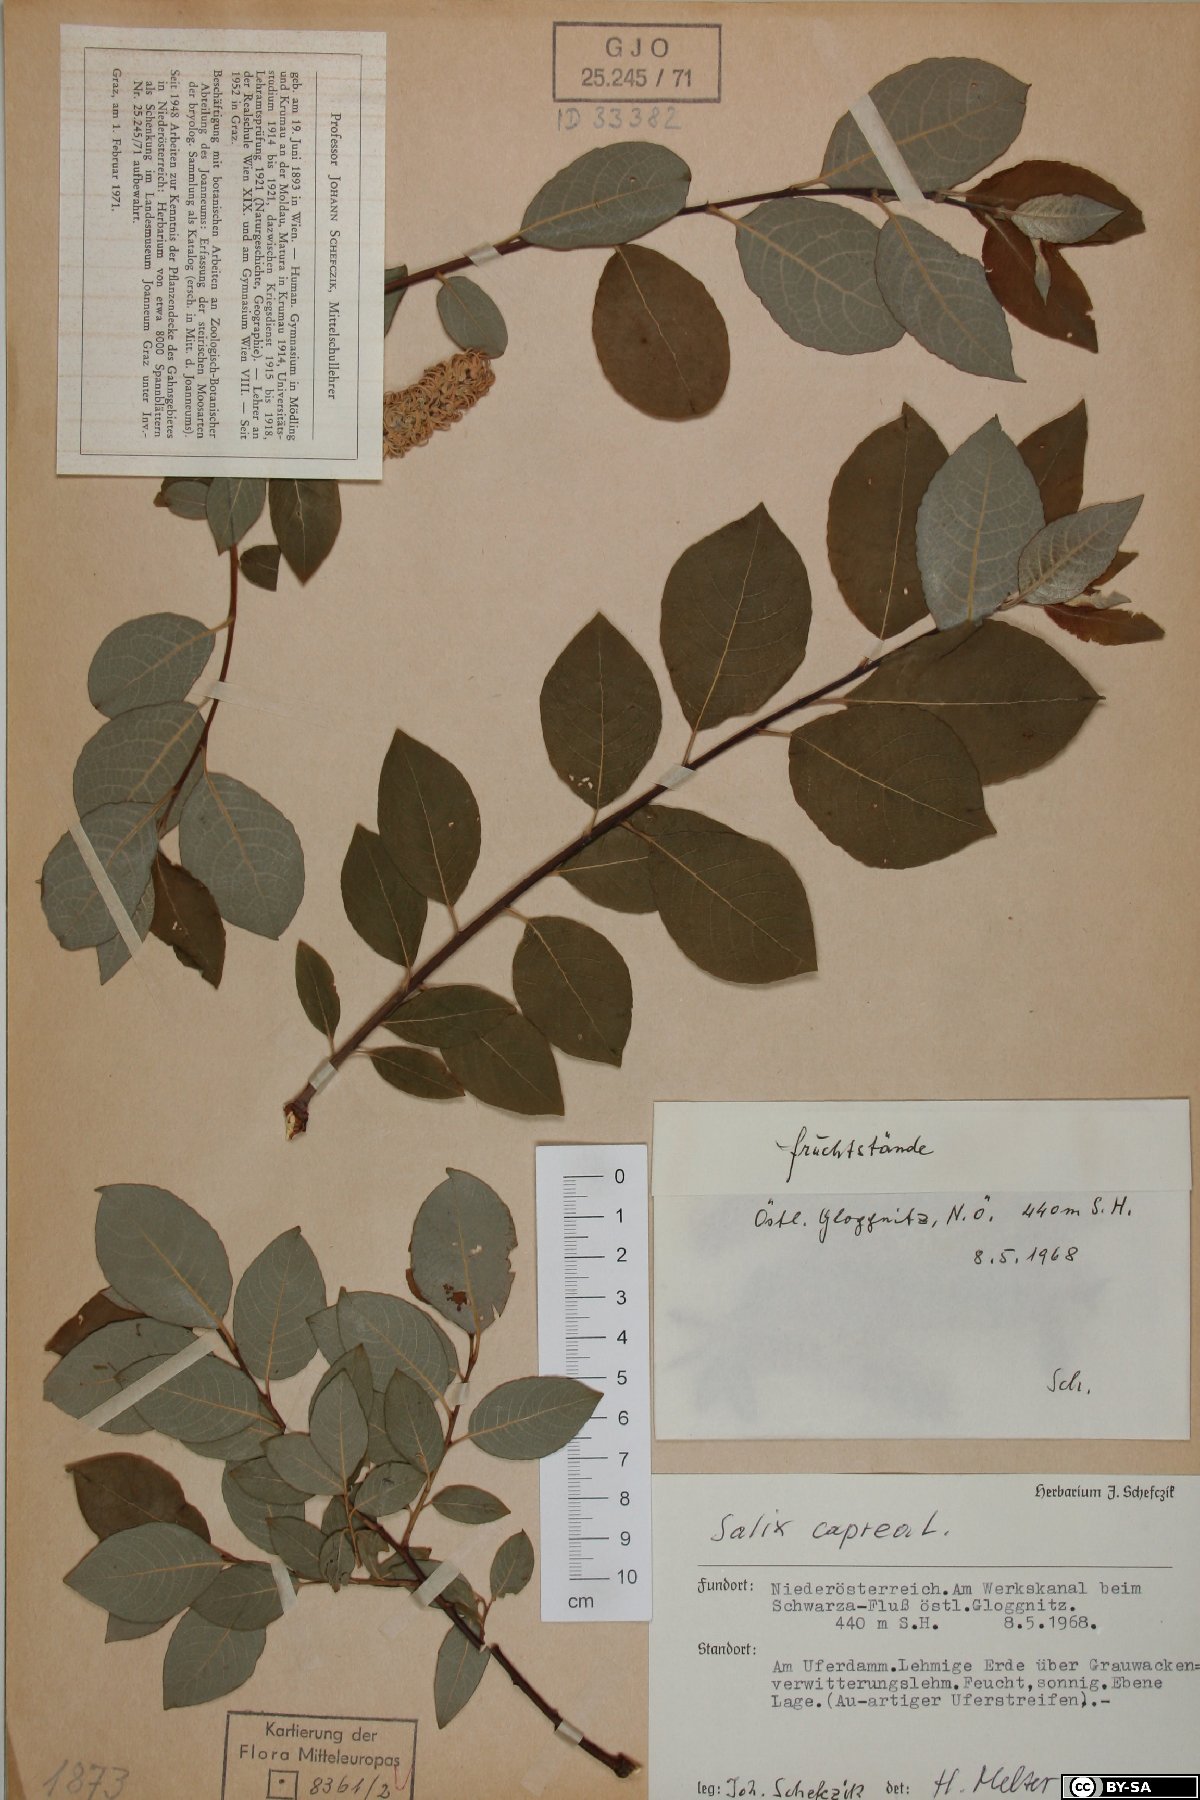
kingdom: Plantae
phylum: Tracheophyta
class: Magnoliopsida
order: Malpighiales
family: Salicaceae
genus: Salix
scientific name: Salix caprea
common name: Goat willow
